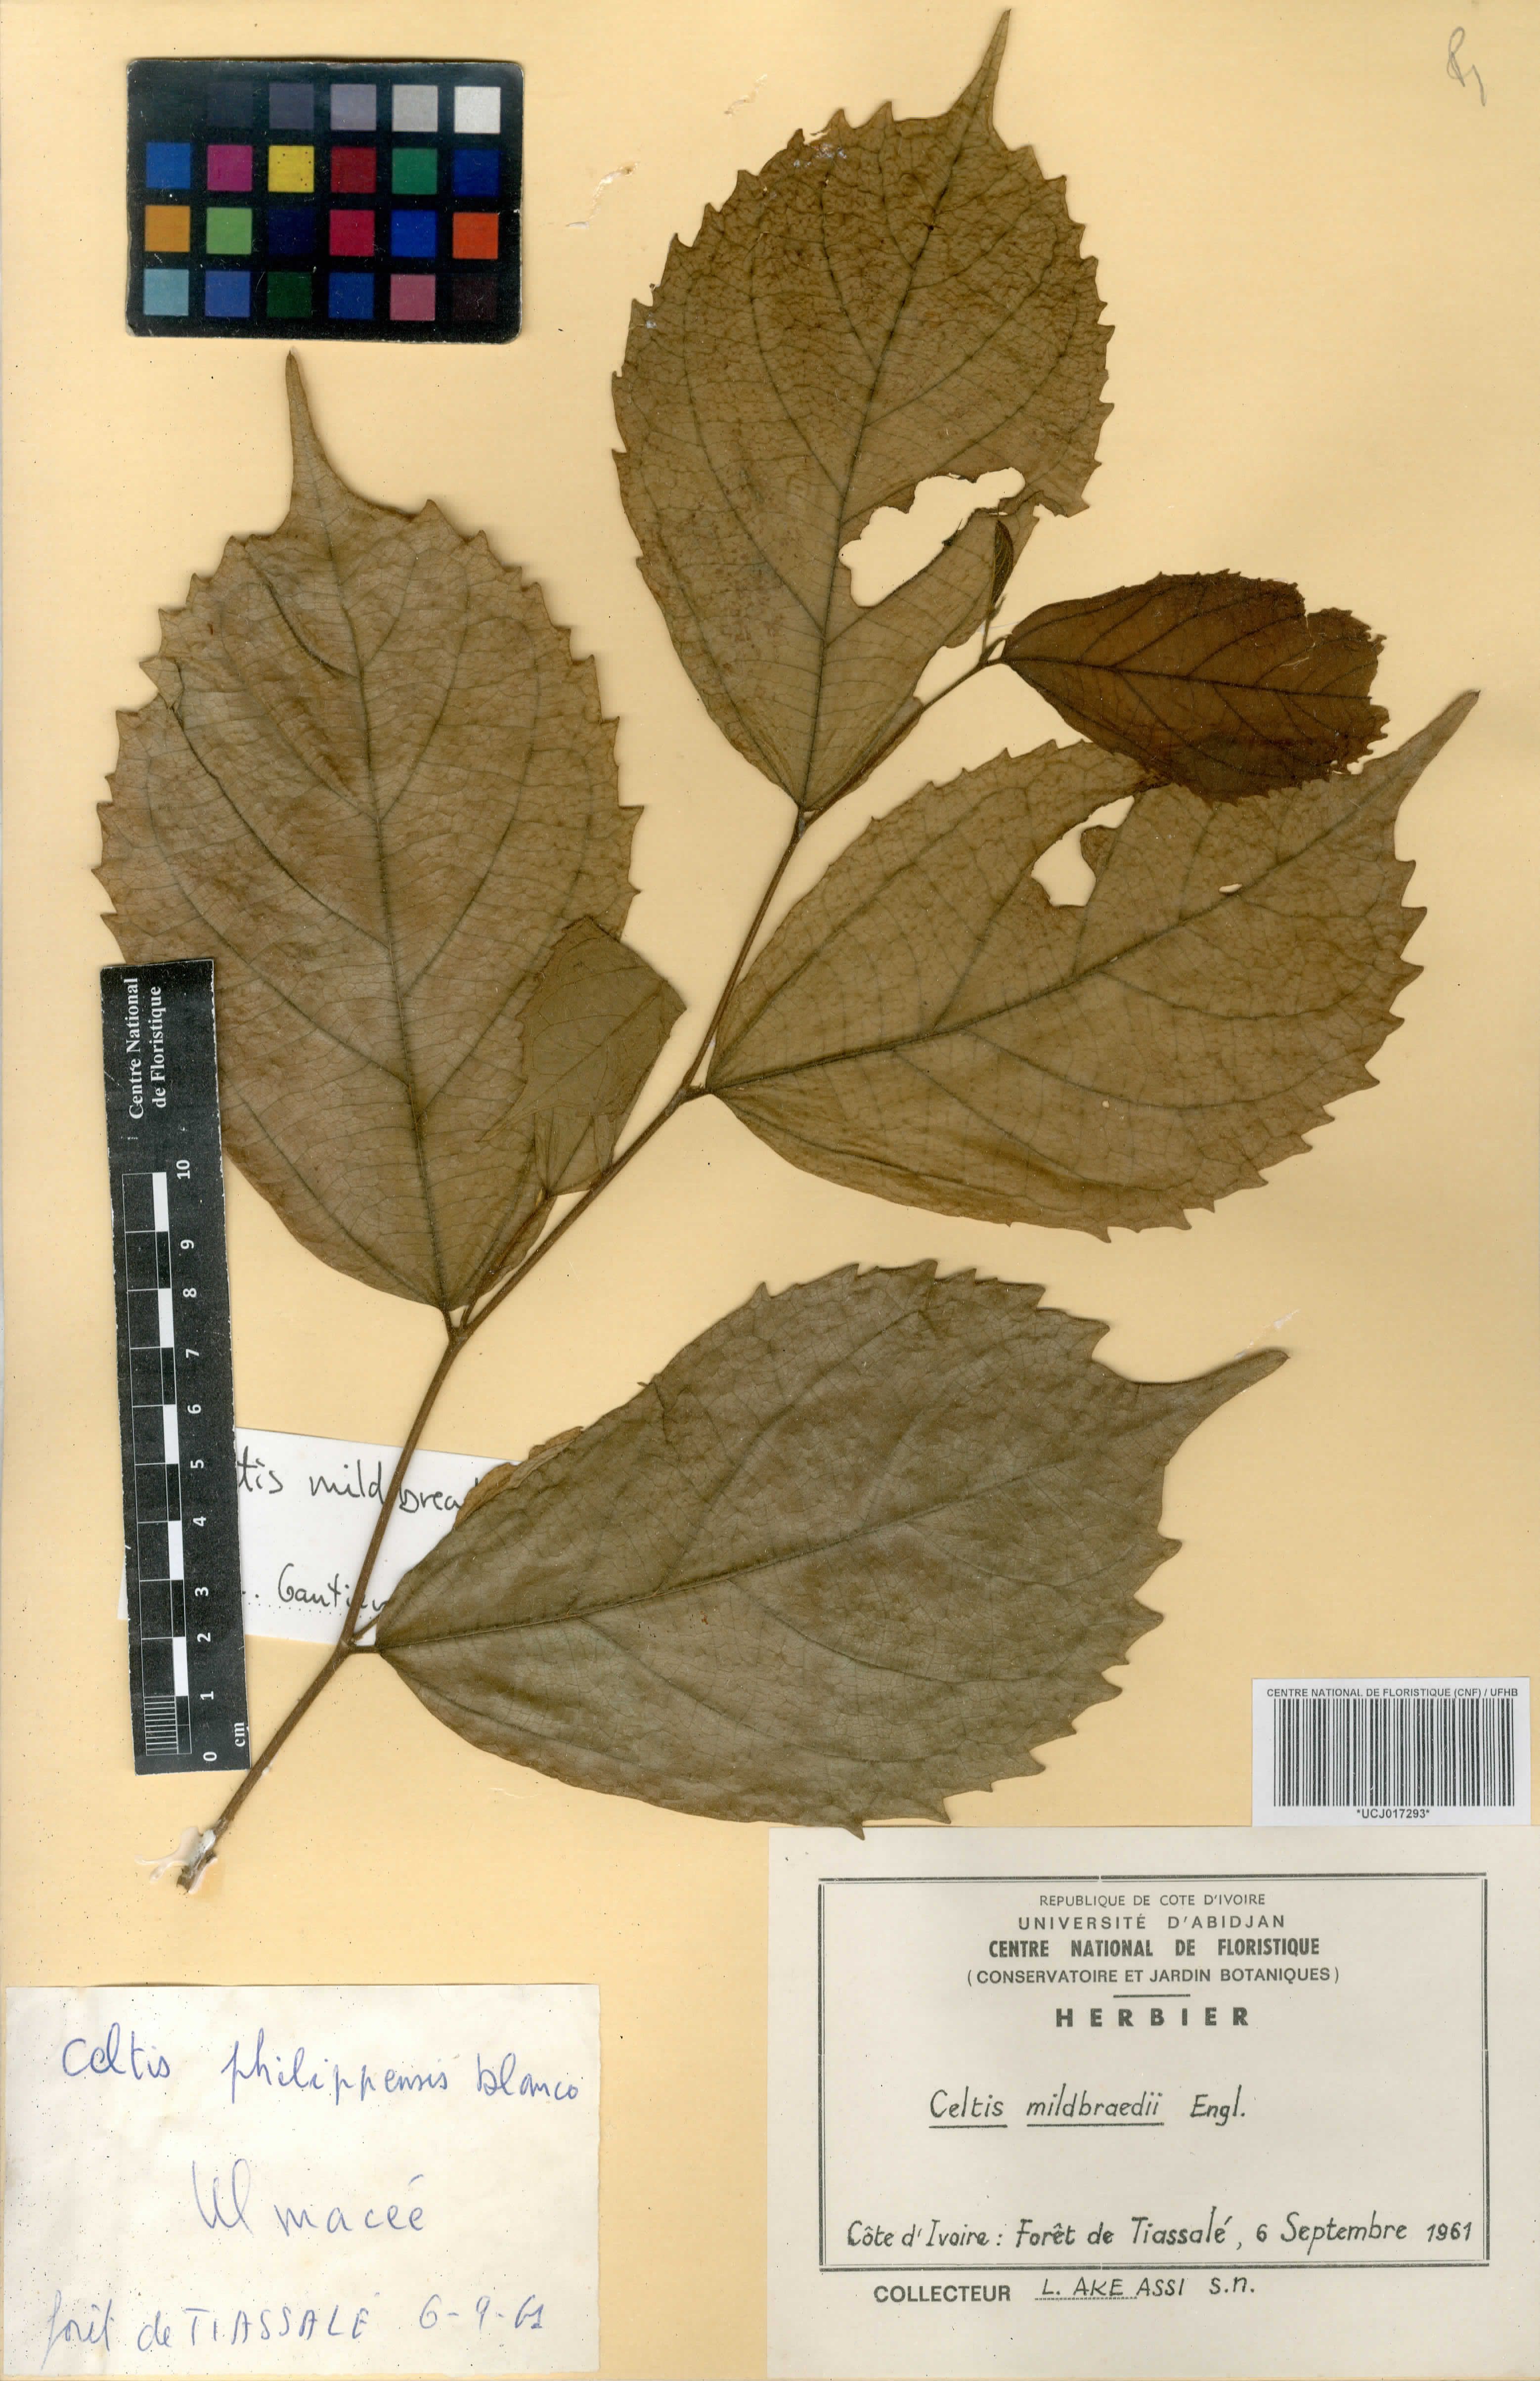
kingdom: Plantae
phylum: Tracheophyta
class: Magnoliopsida
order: Rosales
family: Cannabaceae
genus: Celtis
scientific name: Celtis mildbraedii
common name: Red-fruited stinkwood
